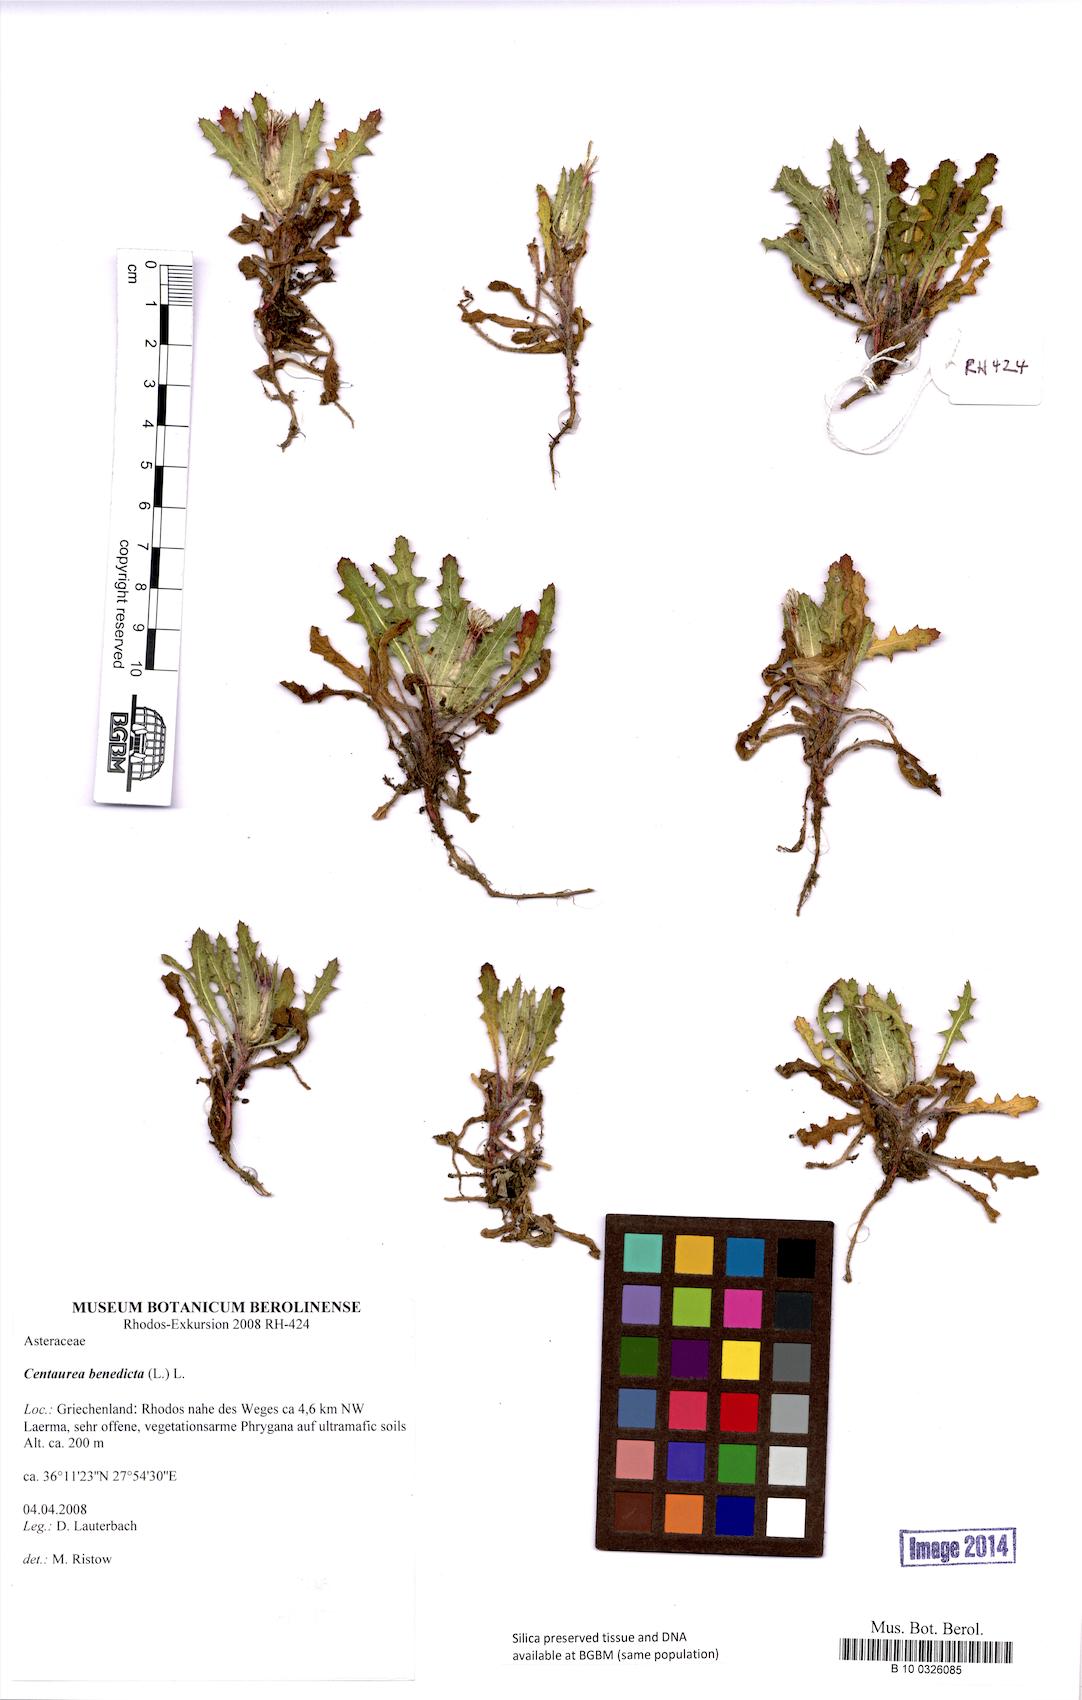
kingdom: Plantae
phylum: Tracheophyta
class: Magnoliopsida
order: Asterales
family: Asteraceae
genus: Centaurea
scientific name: Centaurea benedicta
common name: Blessed thistle
